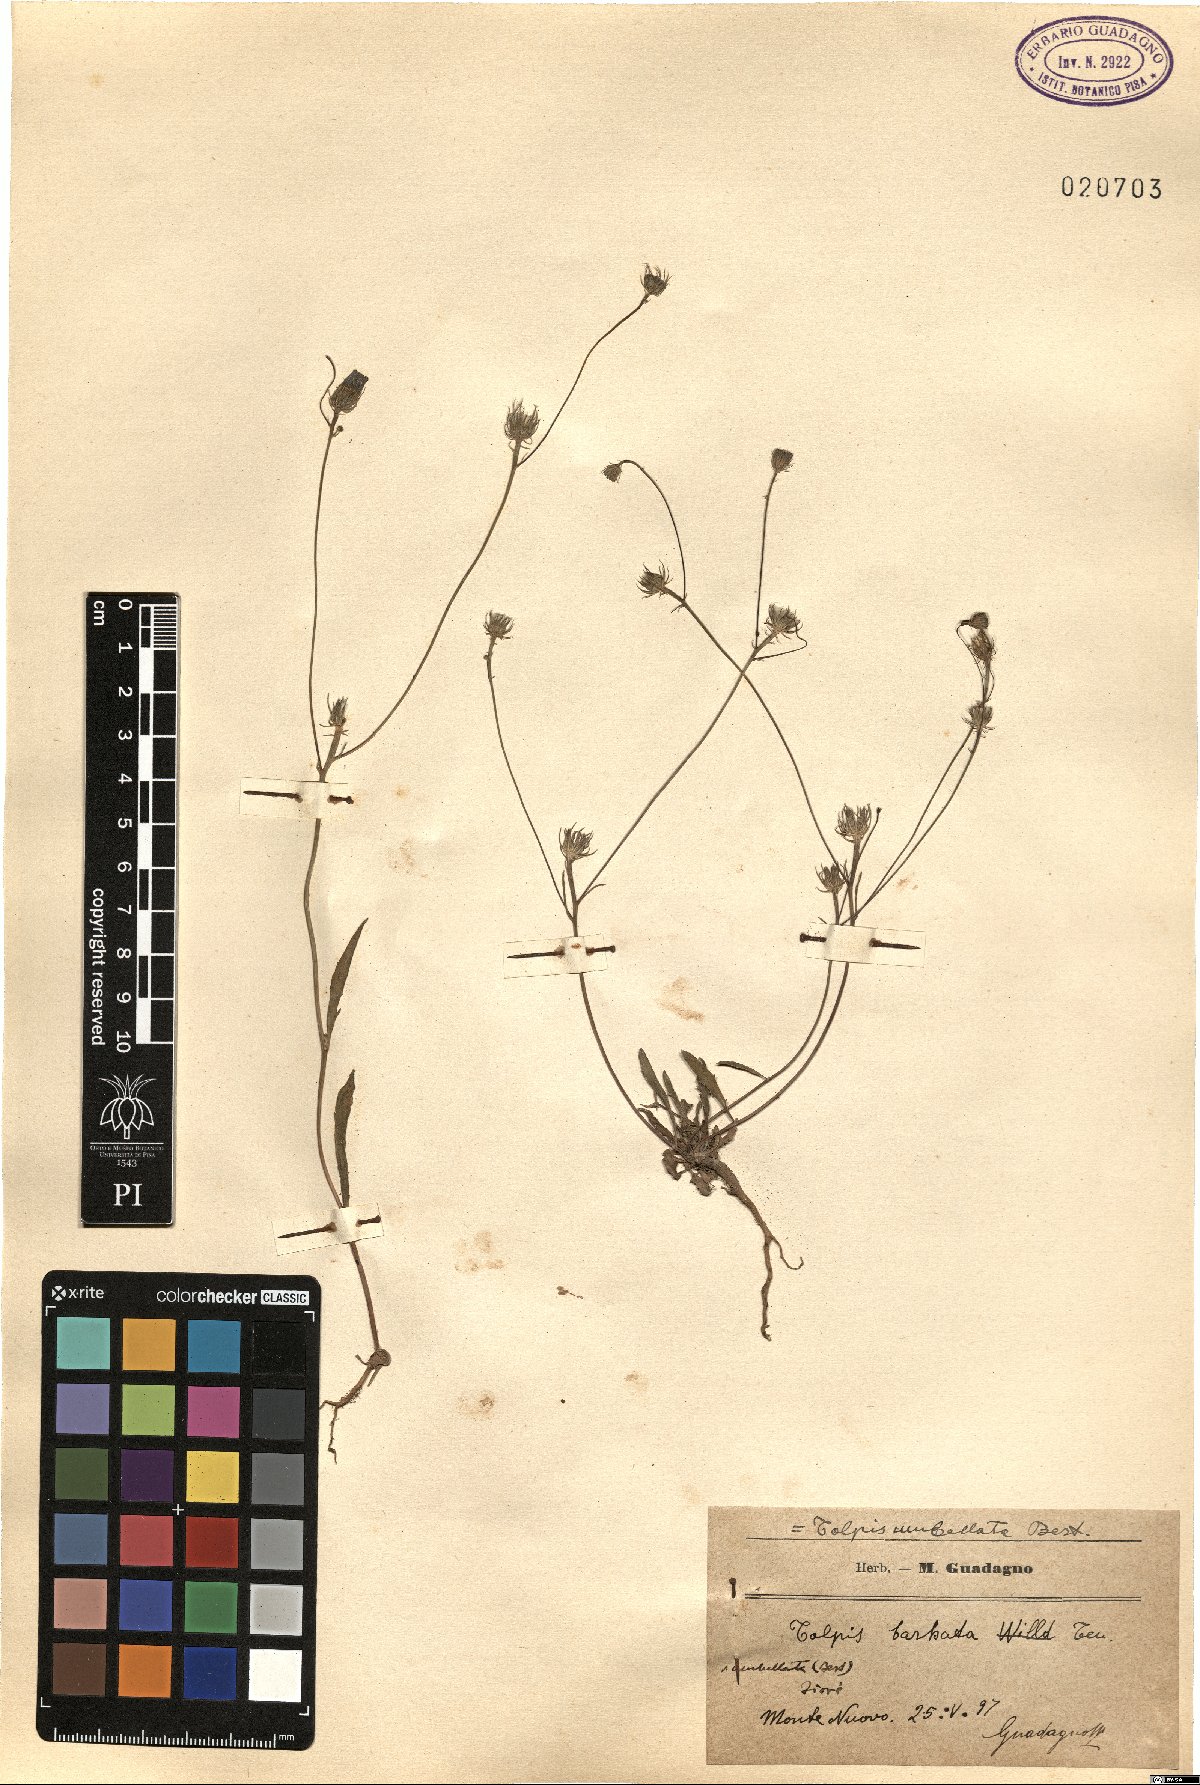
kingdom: Plantae
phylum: Tracheophyta
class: Magnoliopsida
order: Asterales
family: Asteraceae
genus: Tolpis
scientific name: Tolpis umbellata
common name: Yellow hawkweed
